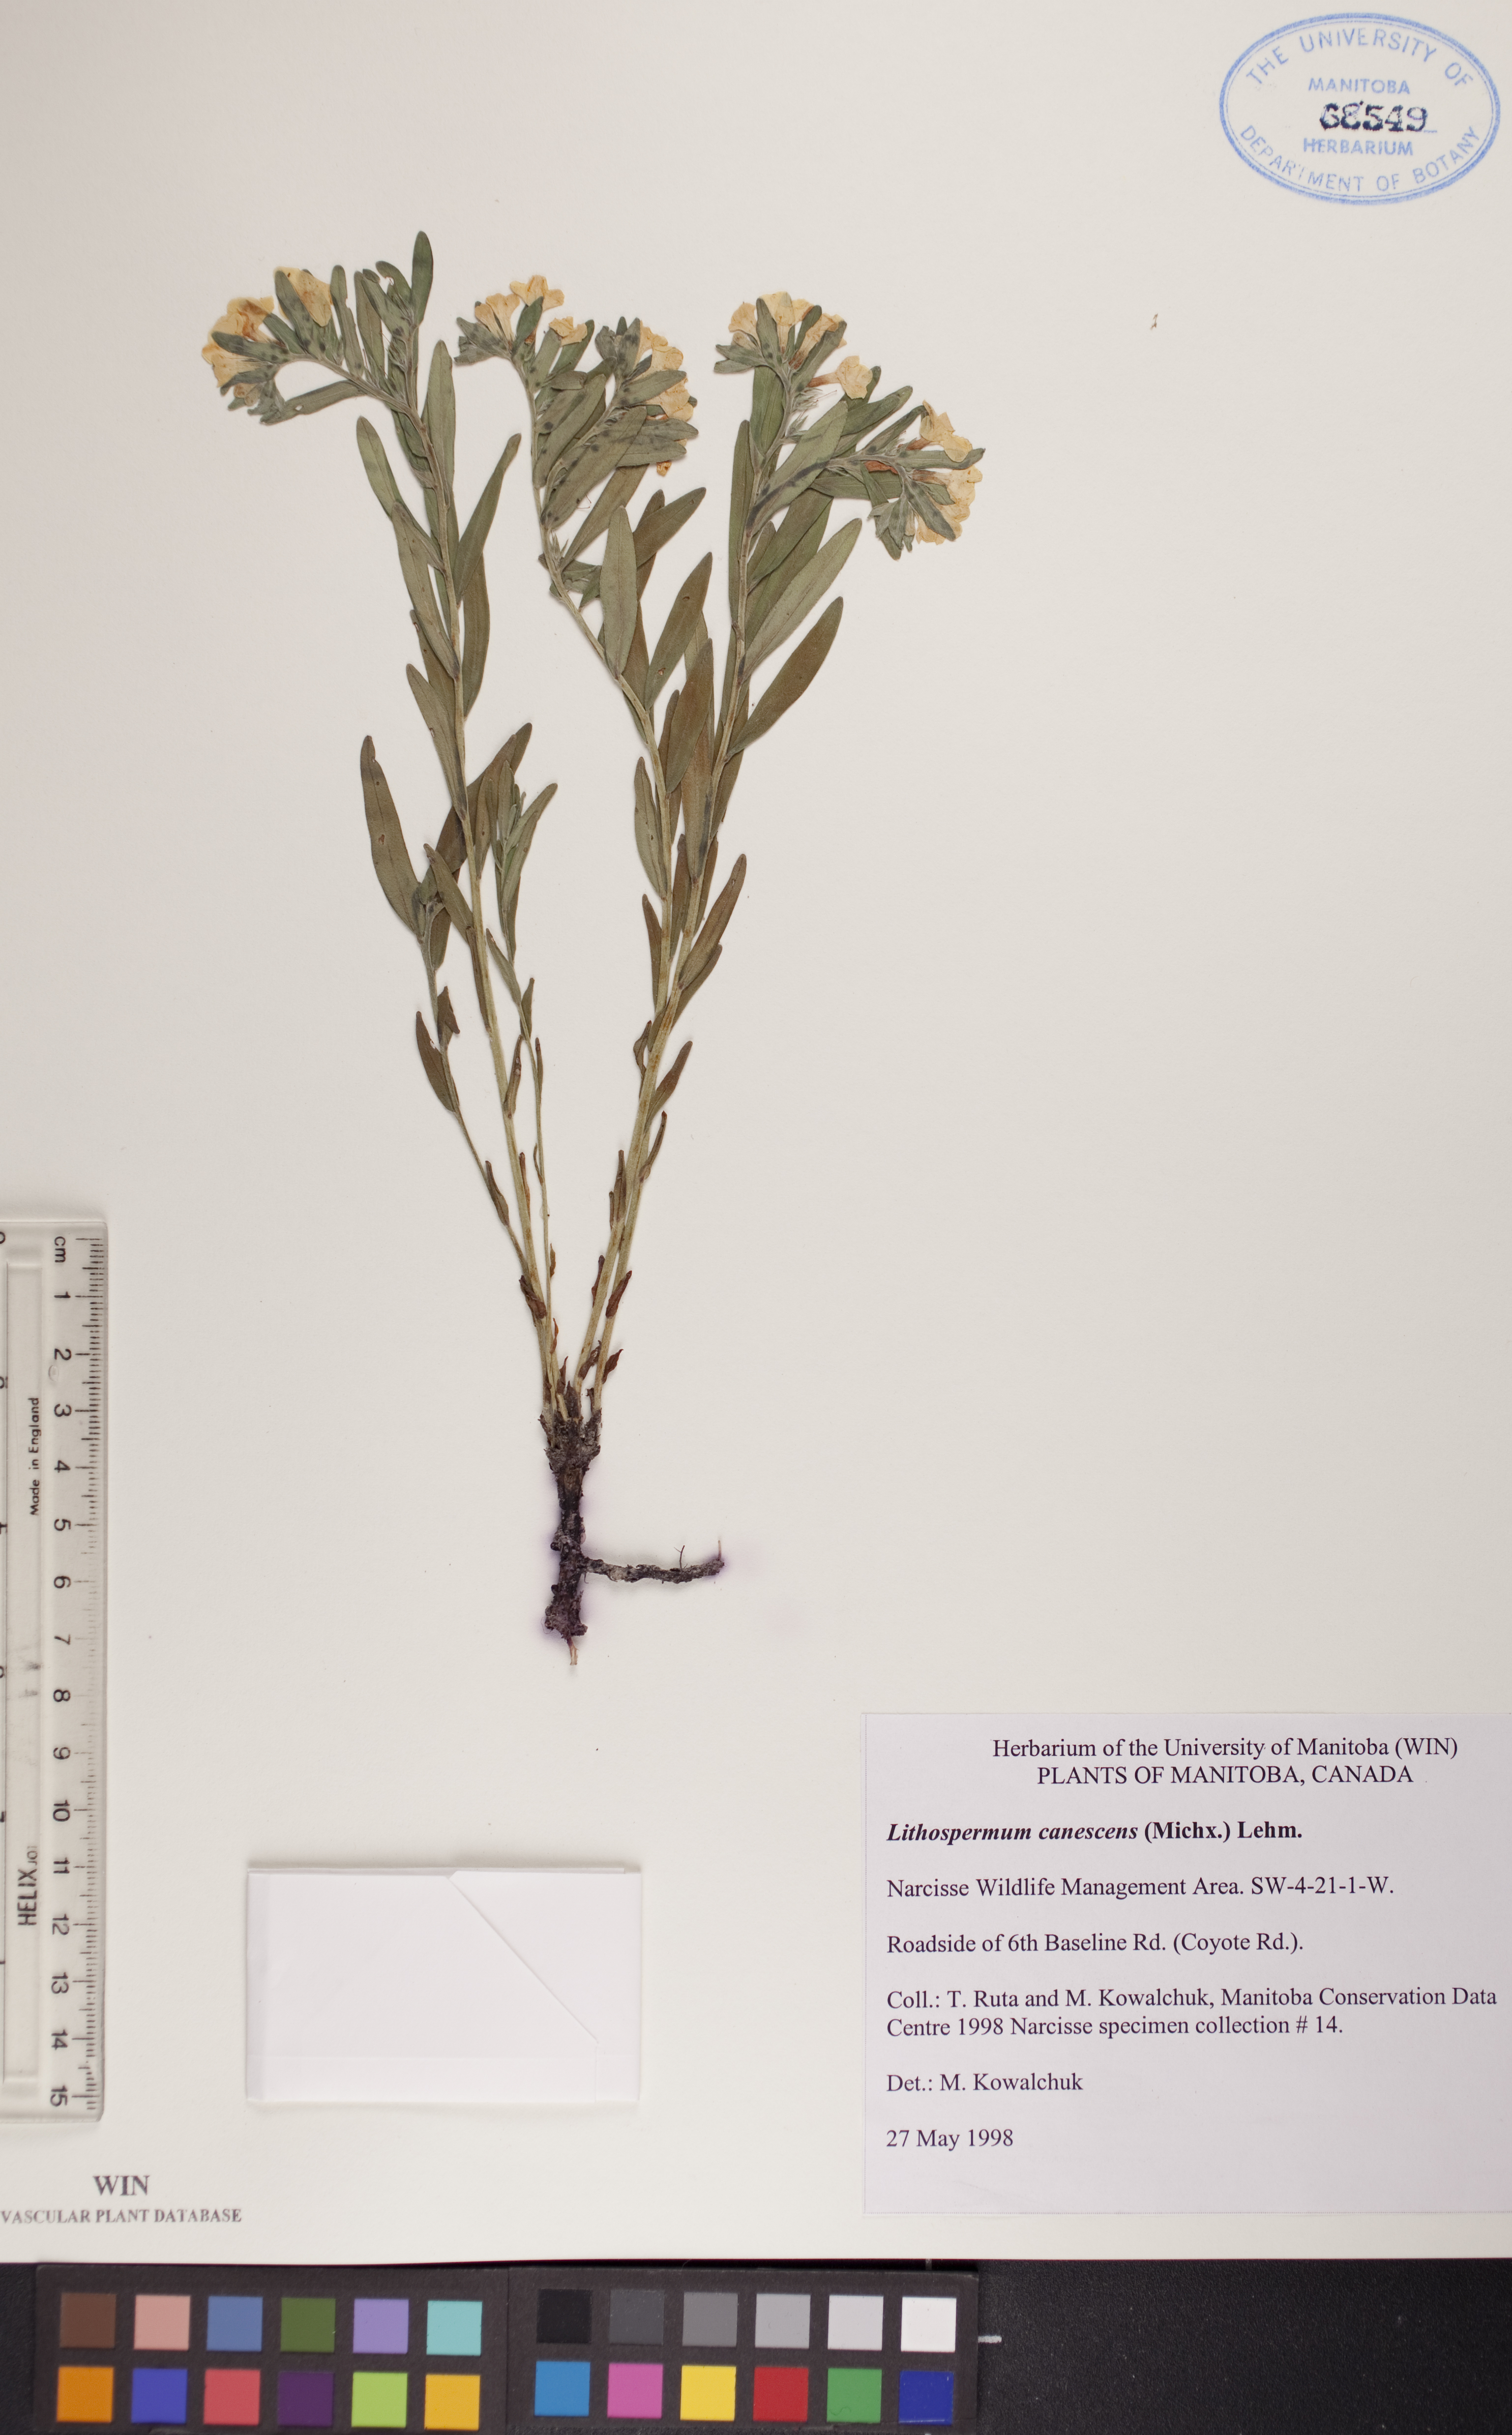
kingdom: Plantae
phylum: Tracheophyta
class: Magnoliopsida
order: Boraginales
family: Boraginaceae
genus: Lithospermum
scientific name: Lithospermum canescens
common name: Hoary puccoon
